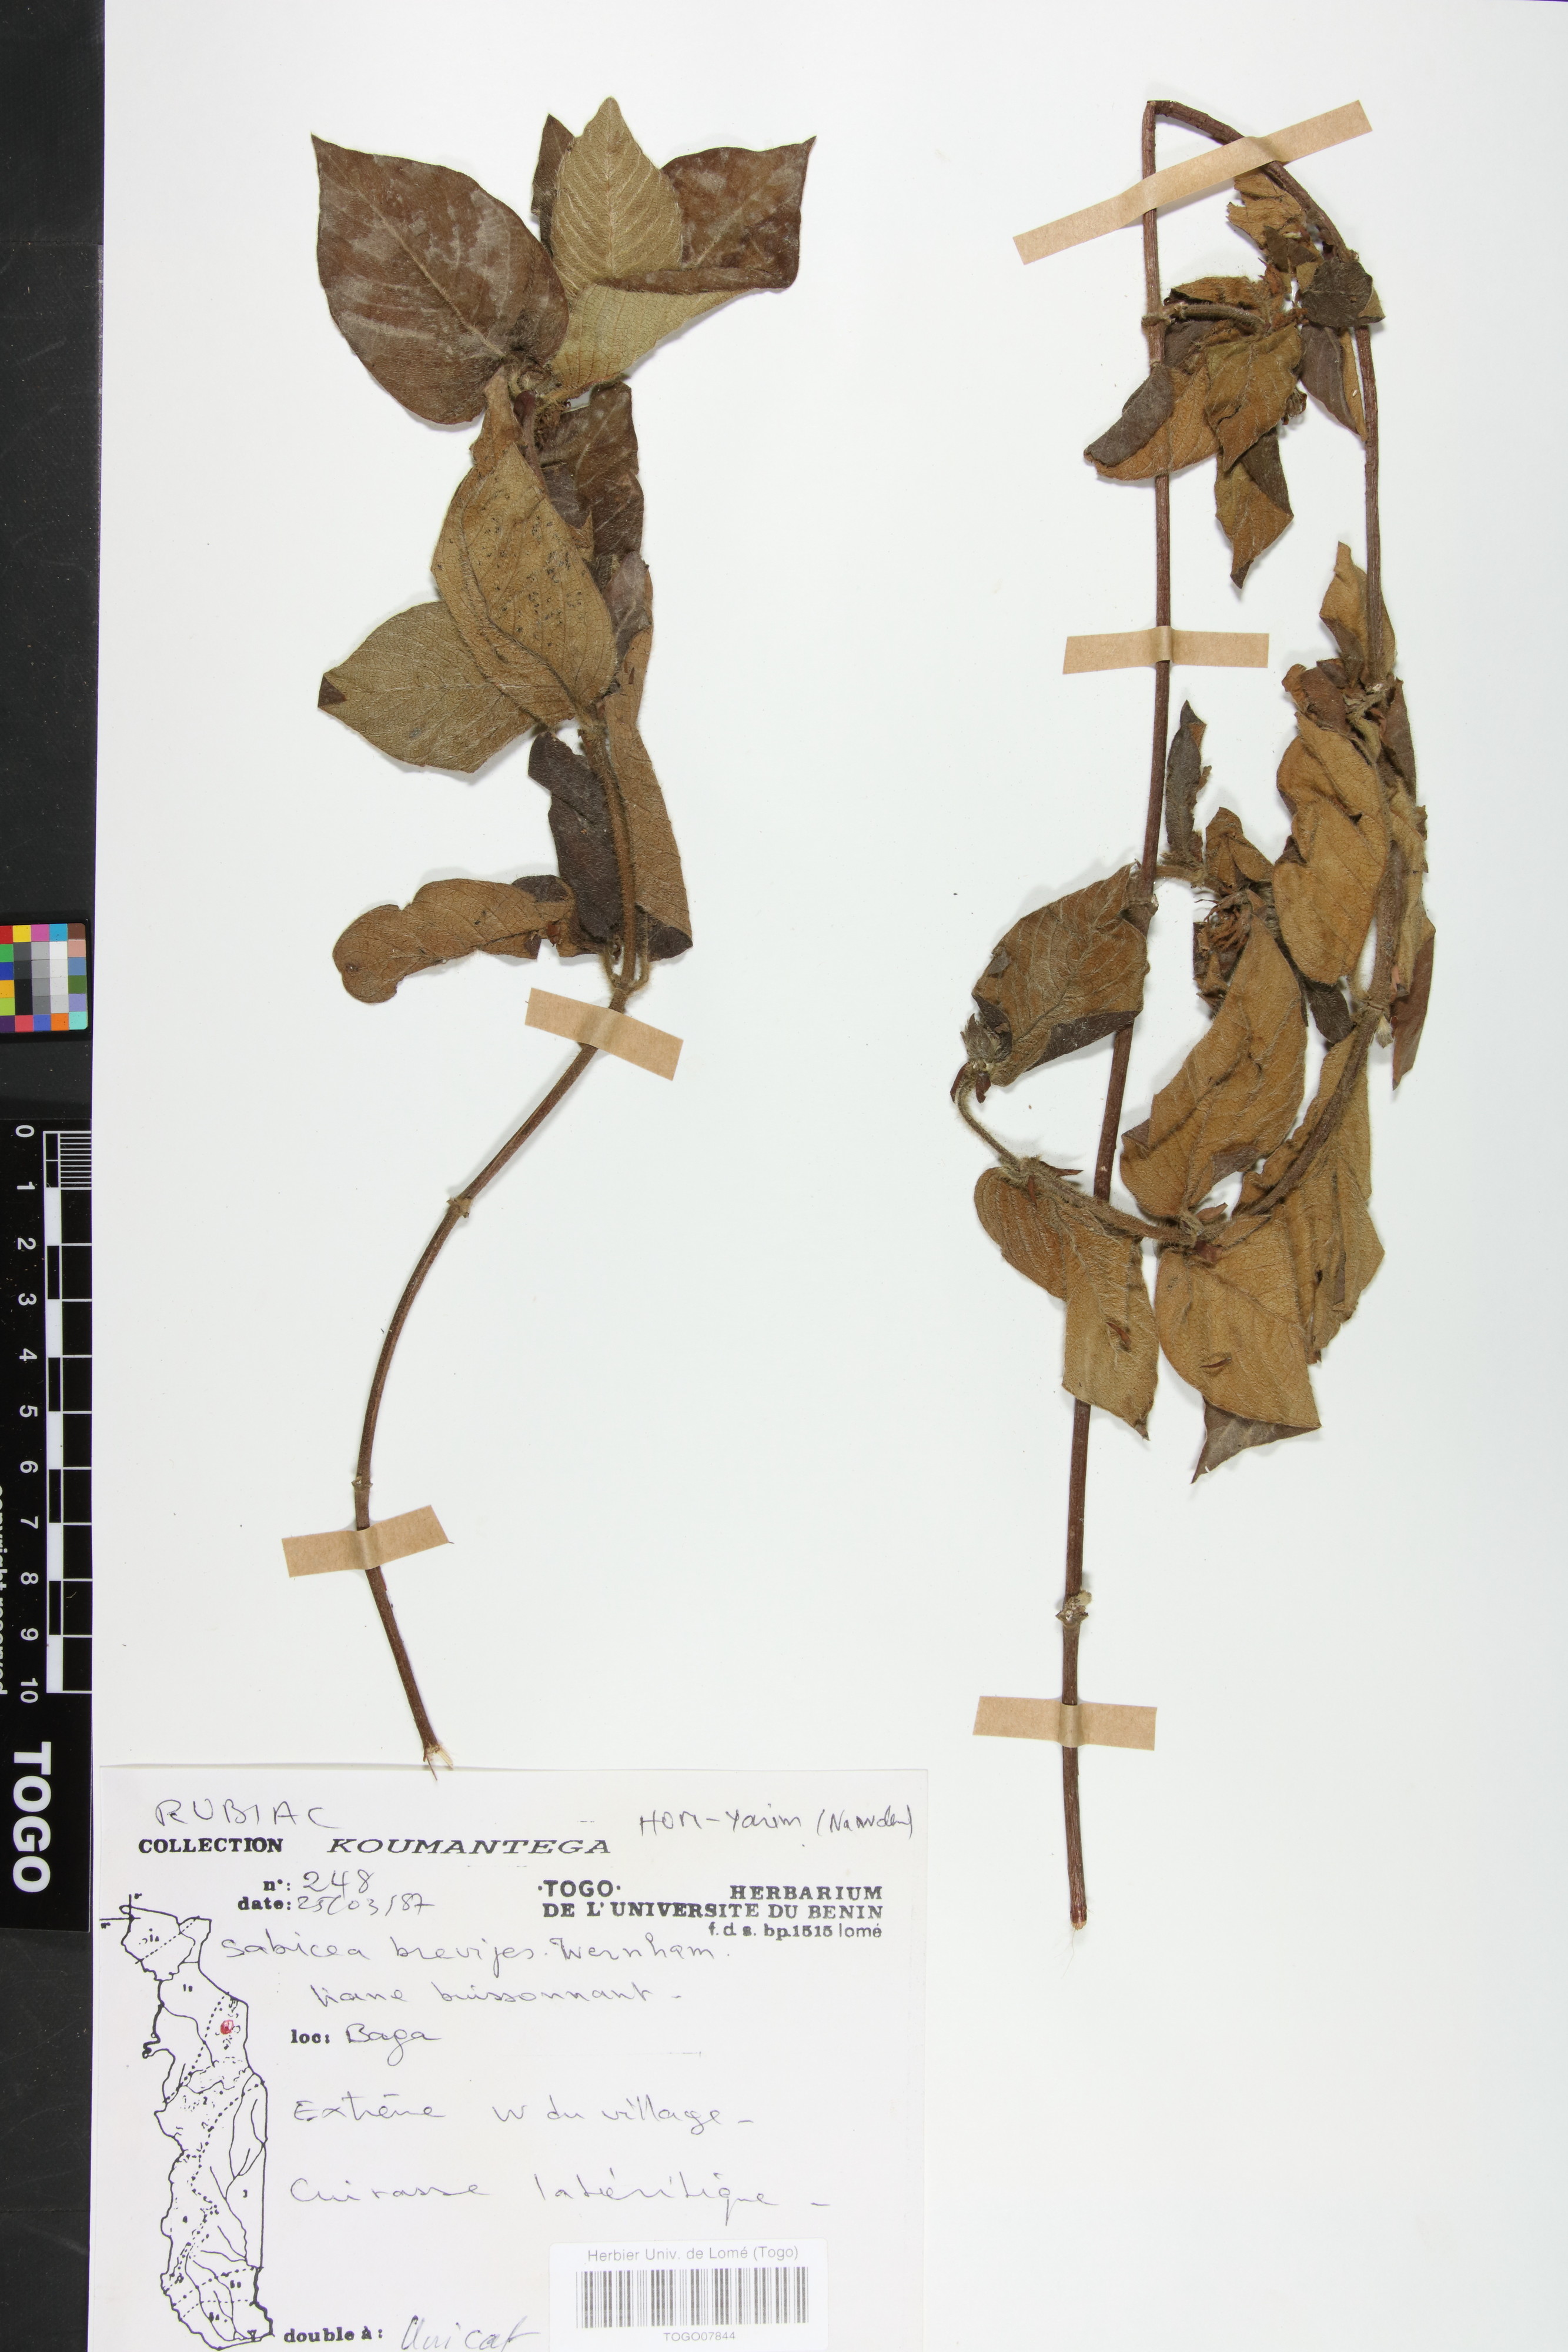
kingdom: Plantae
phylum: Tracheophyta
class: Magnoliopsida
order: Gentianales
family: Rubiaceae
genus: Sabicea
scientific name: Sabicea brevipes
